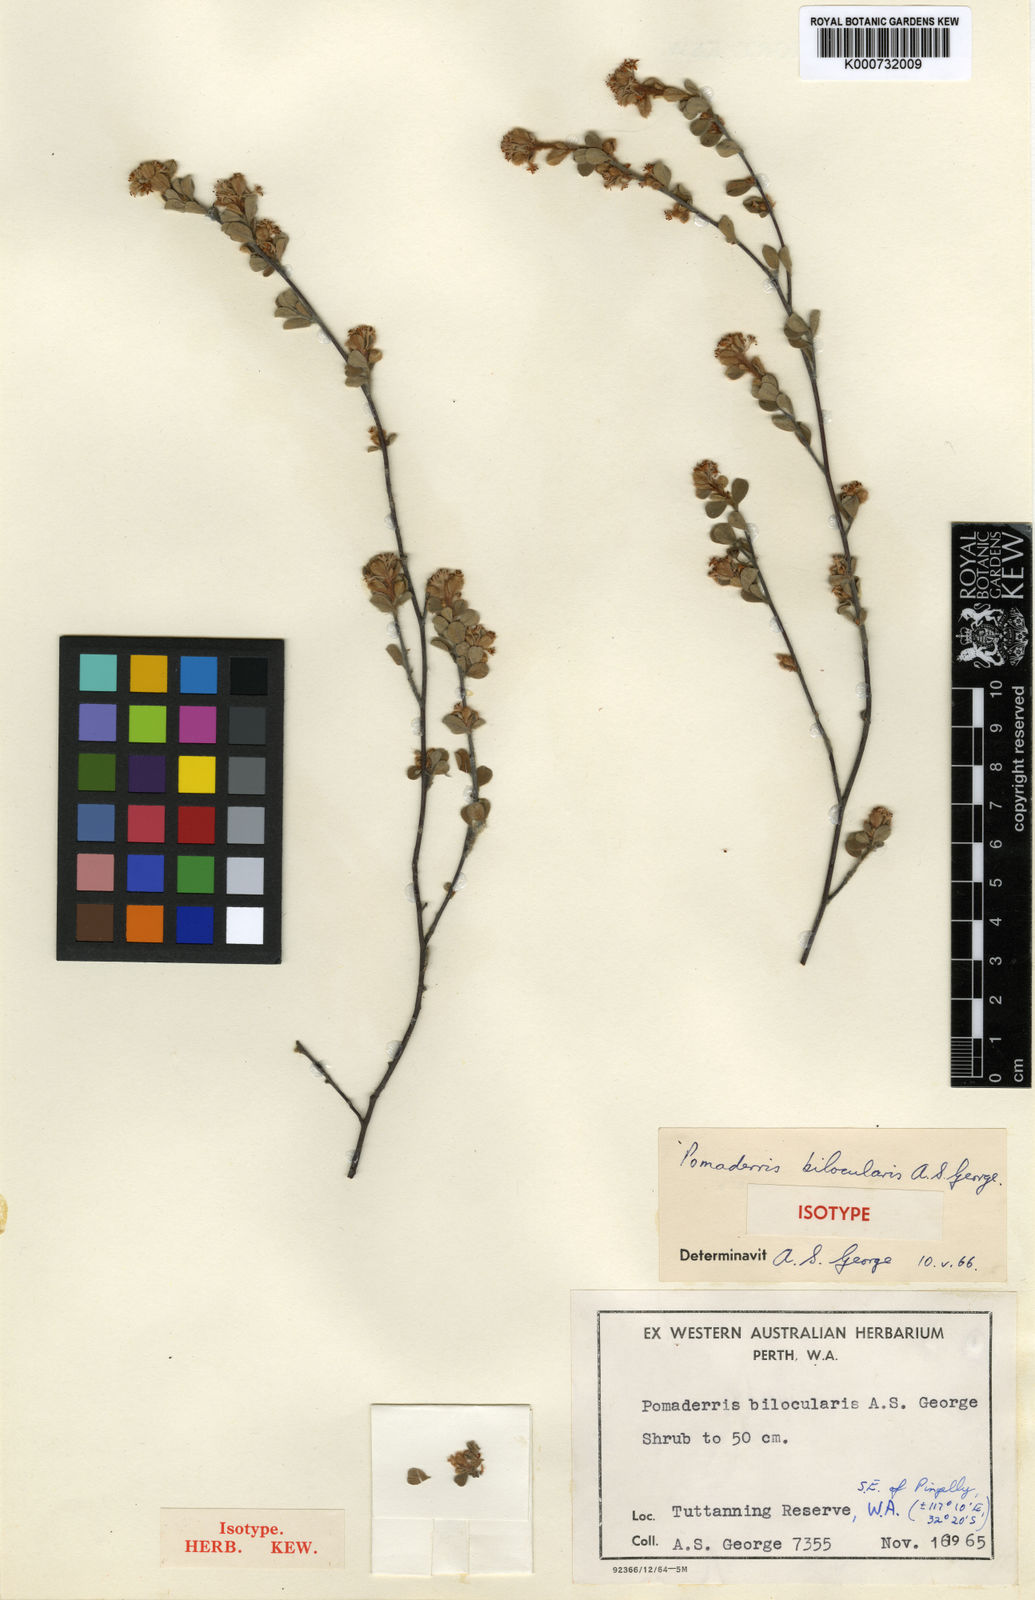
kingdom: Plantae
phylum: Tracheophyta
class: Magnoliopsida
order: Rosales
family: Rhamnaceae
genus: Polianthion
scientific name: Polianthion bilocularis
